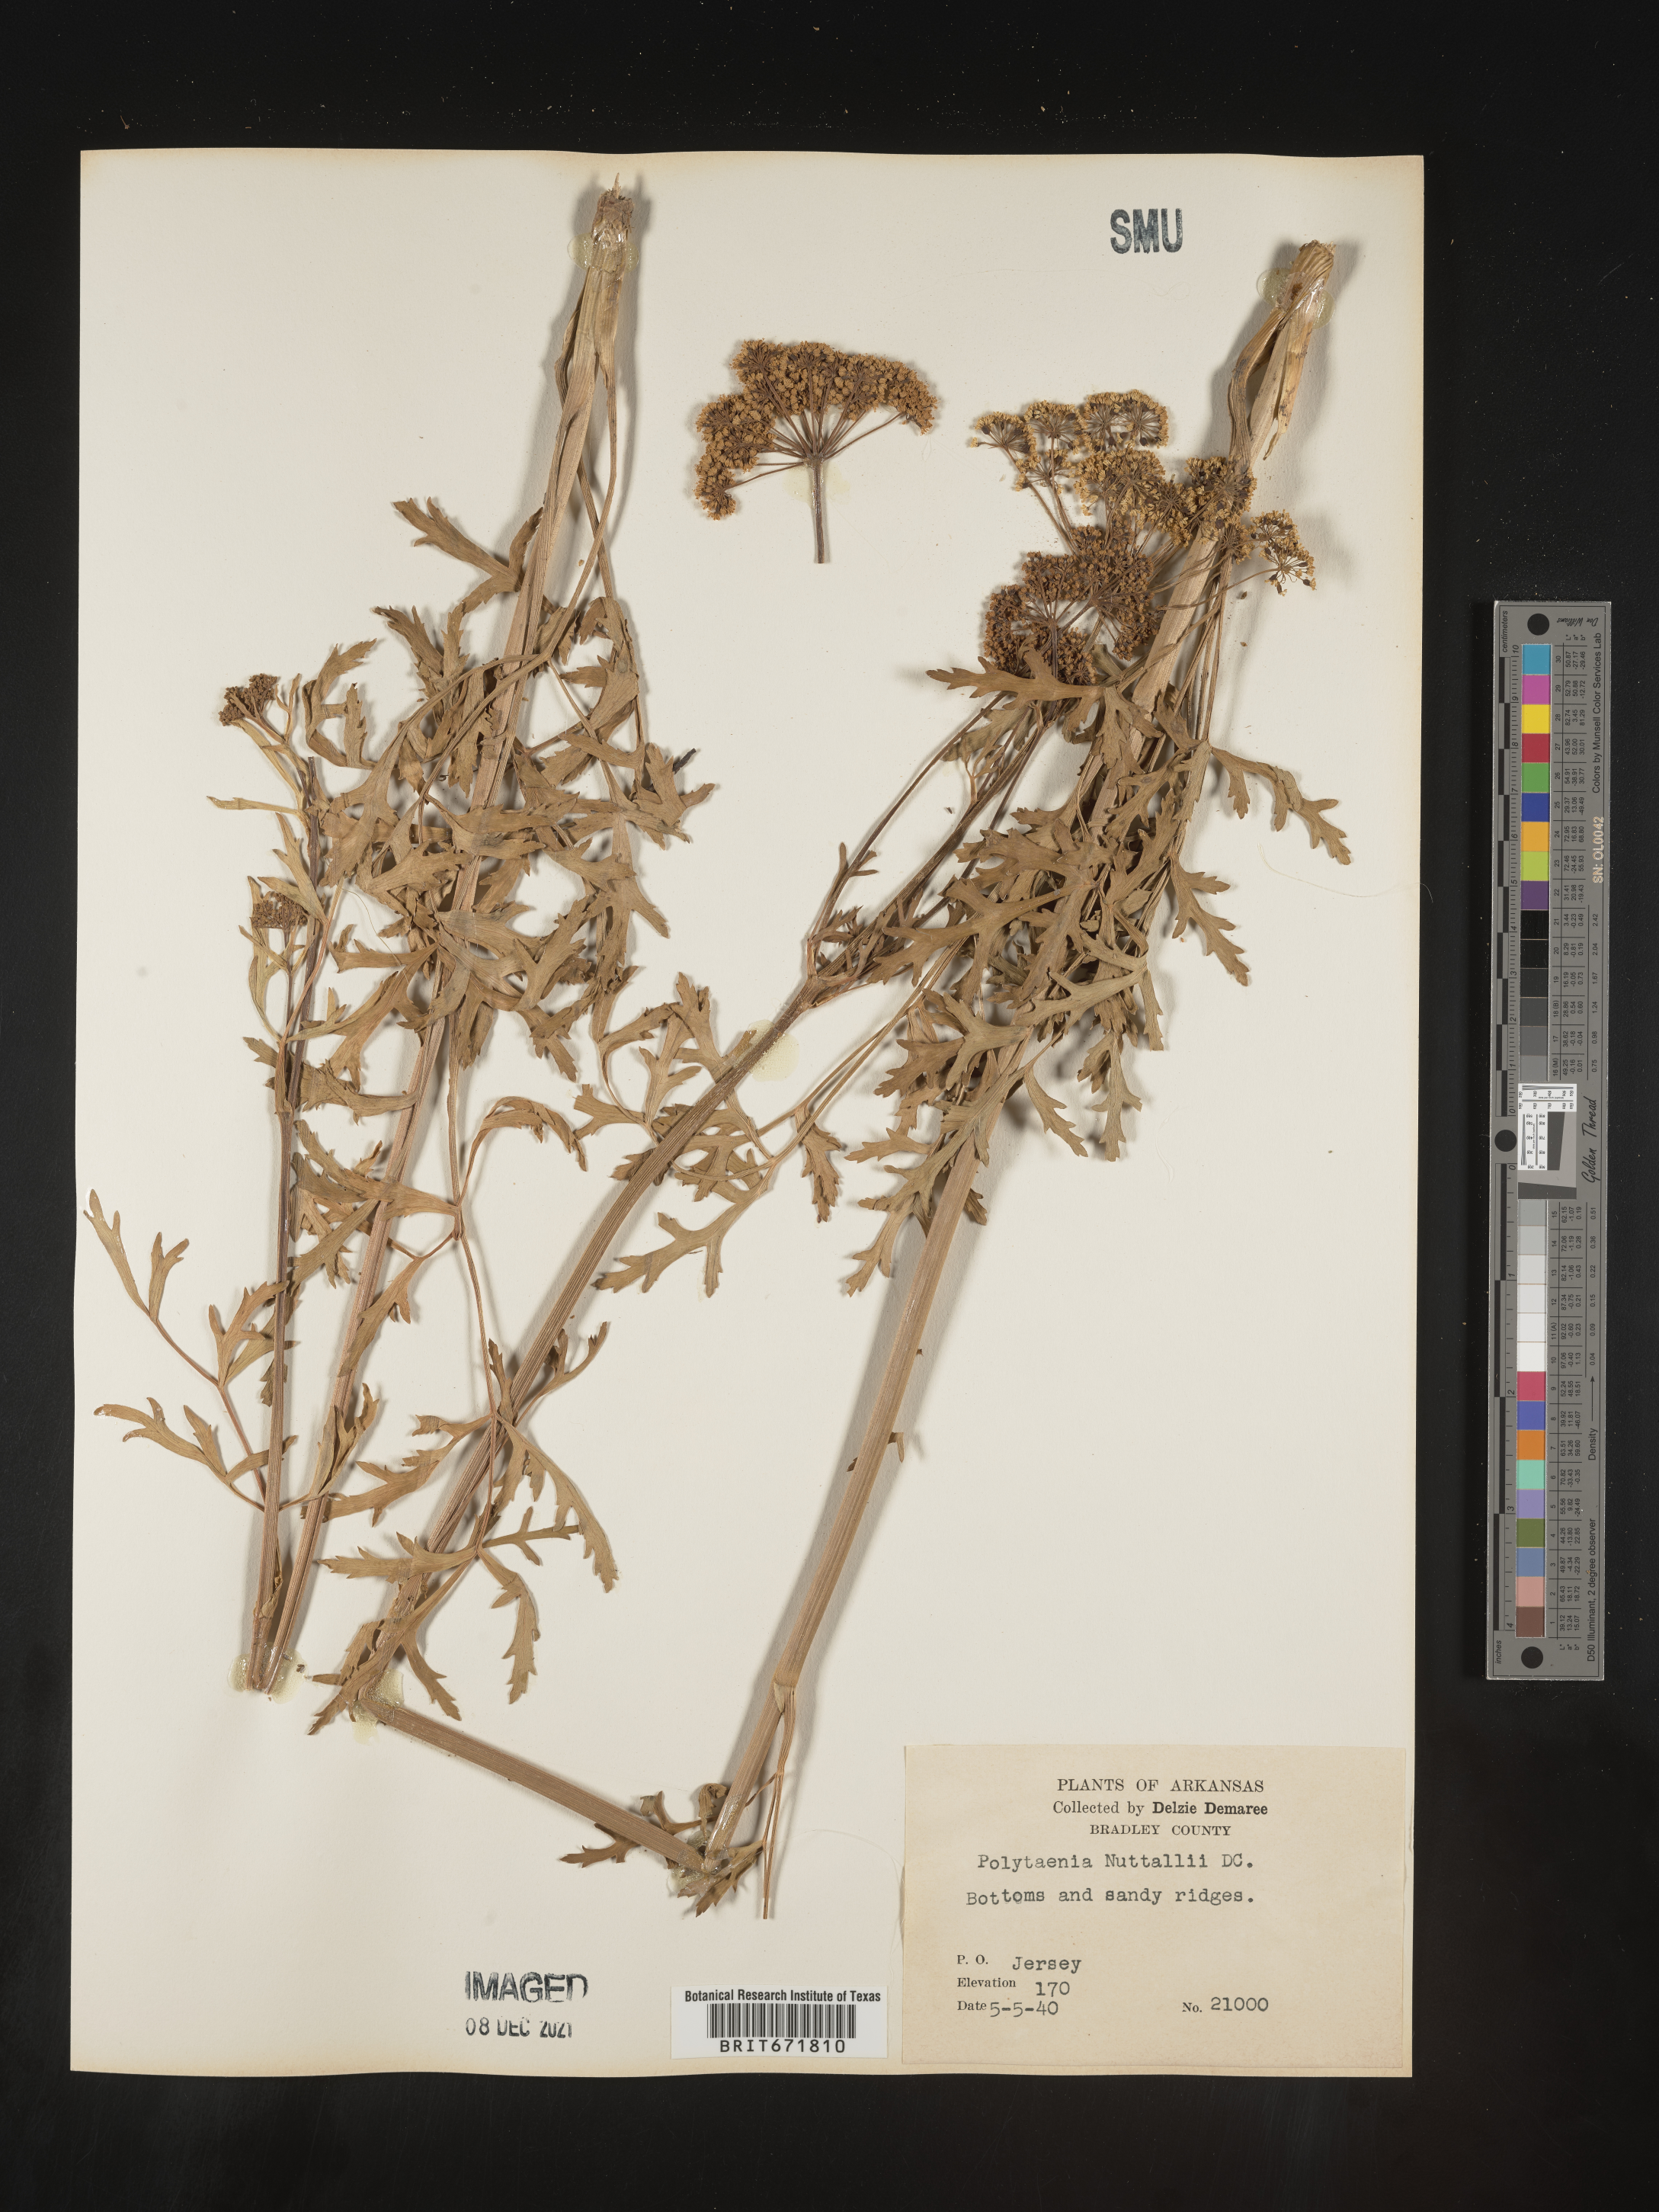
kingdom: Plantae
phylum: Tracheophyta
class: Magnoliopsida
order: Apiales
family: Apiaceae
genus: Polytaenia
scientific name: Polytaenia nuttallii
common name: Prairie-parsley
